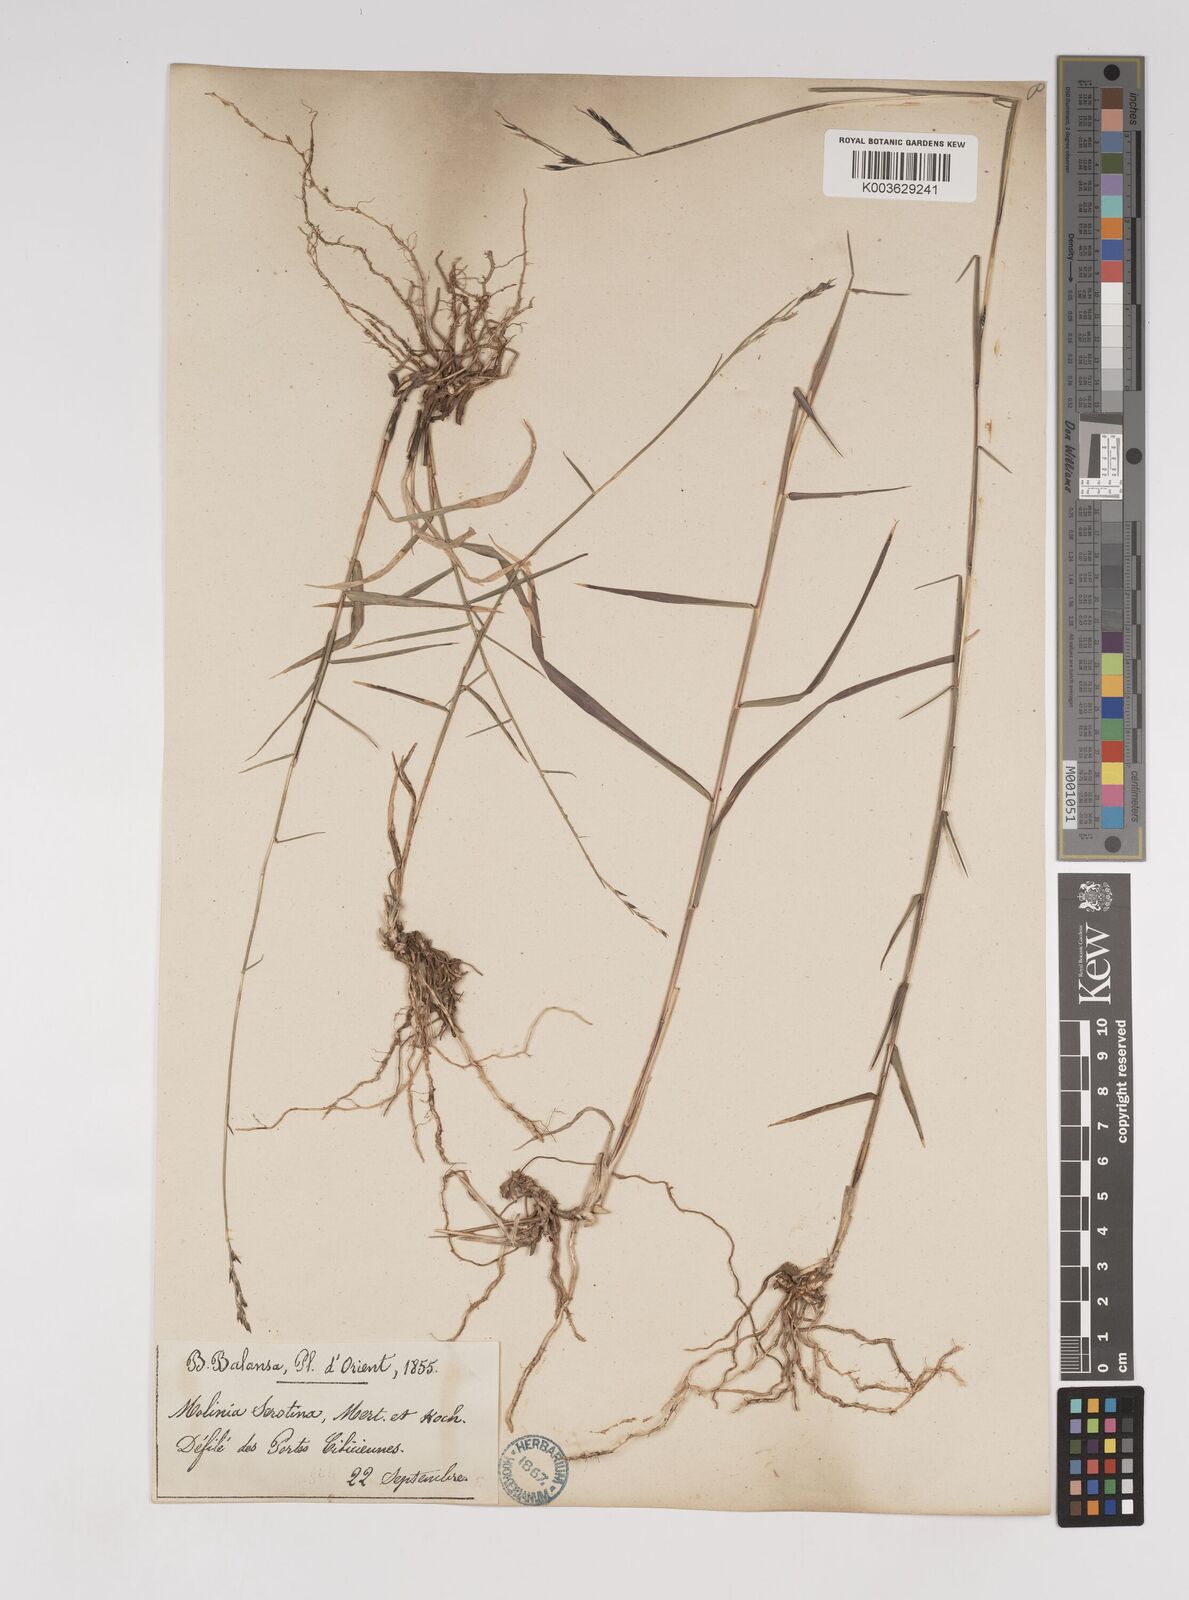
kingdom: Plantae
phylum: Tracheophyta
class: Liliopsida
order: Poales
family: Poaceae
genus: Cleistogenes
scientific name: Cleistogenes serotina
